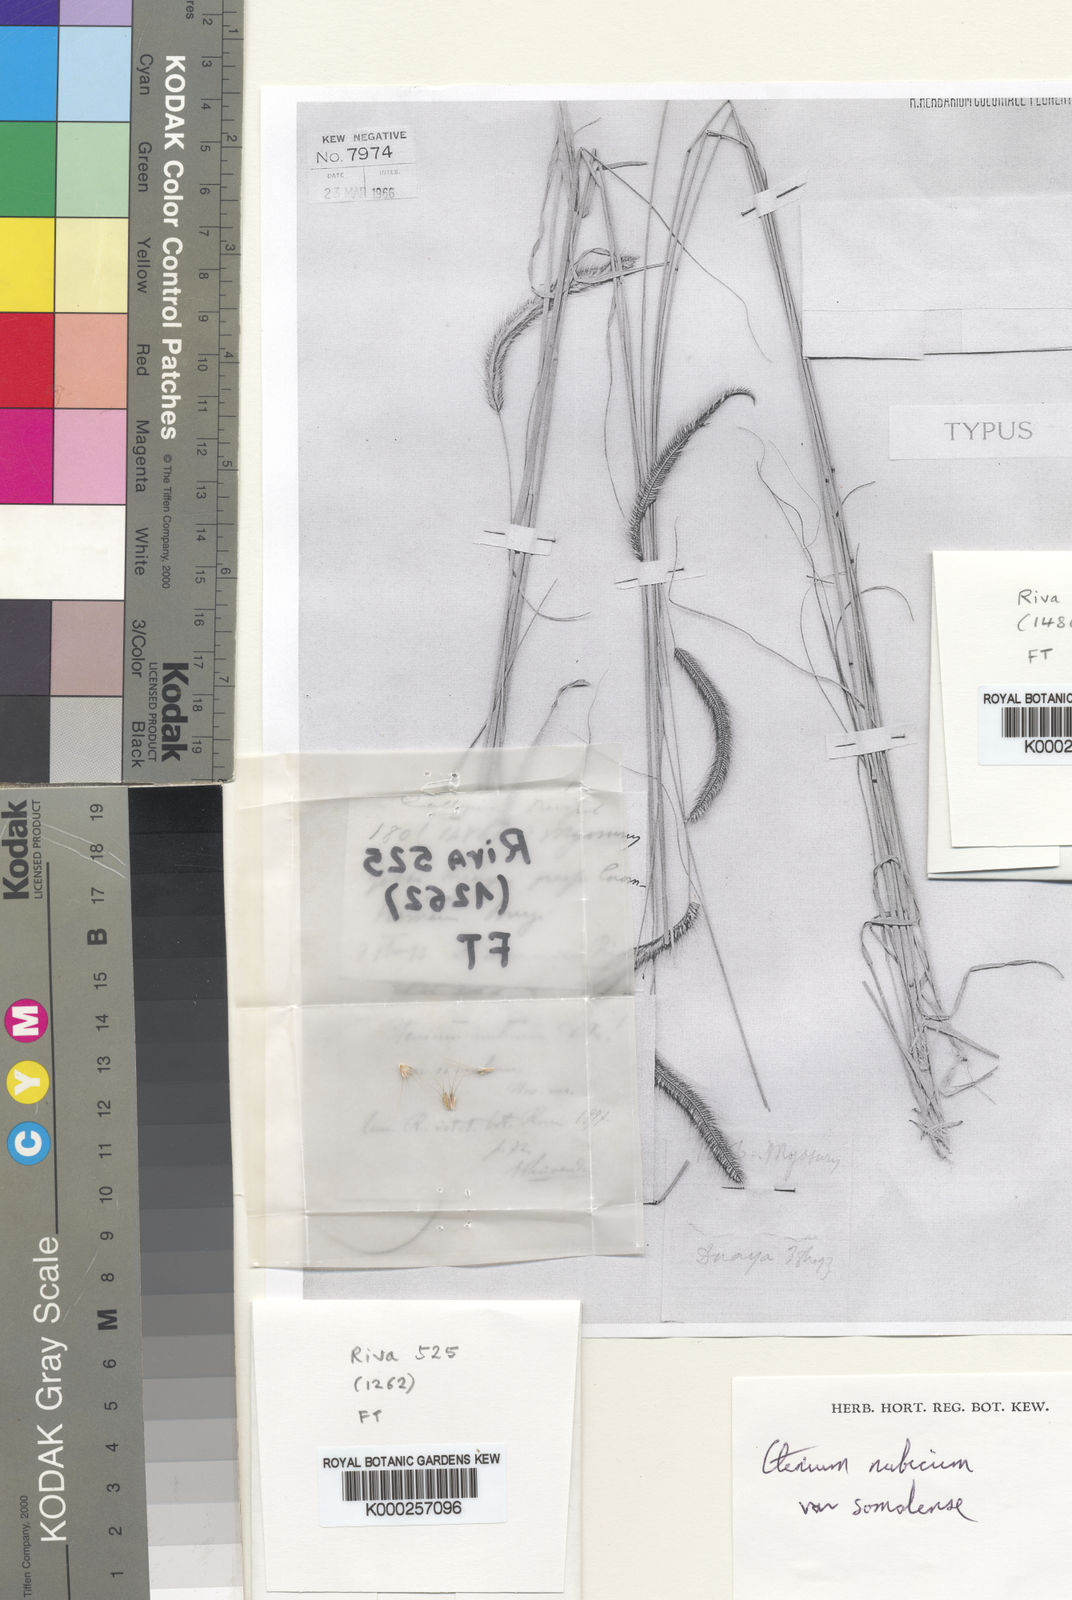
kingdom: Plantae
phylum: Tracheophyta
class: Liliopsida
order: Poales
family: Poaceae
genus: Ctenium
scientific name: Ctenium concinnum
